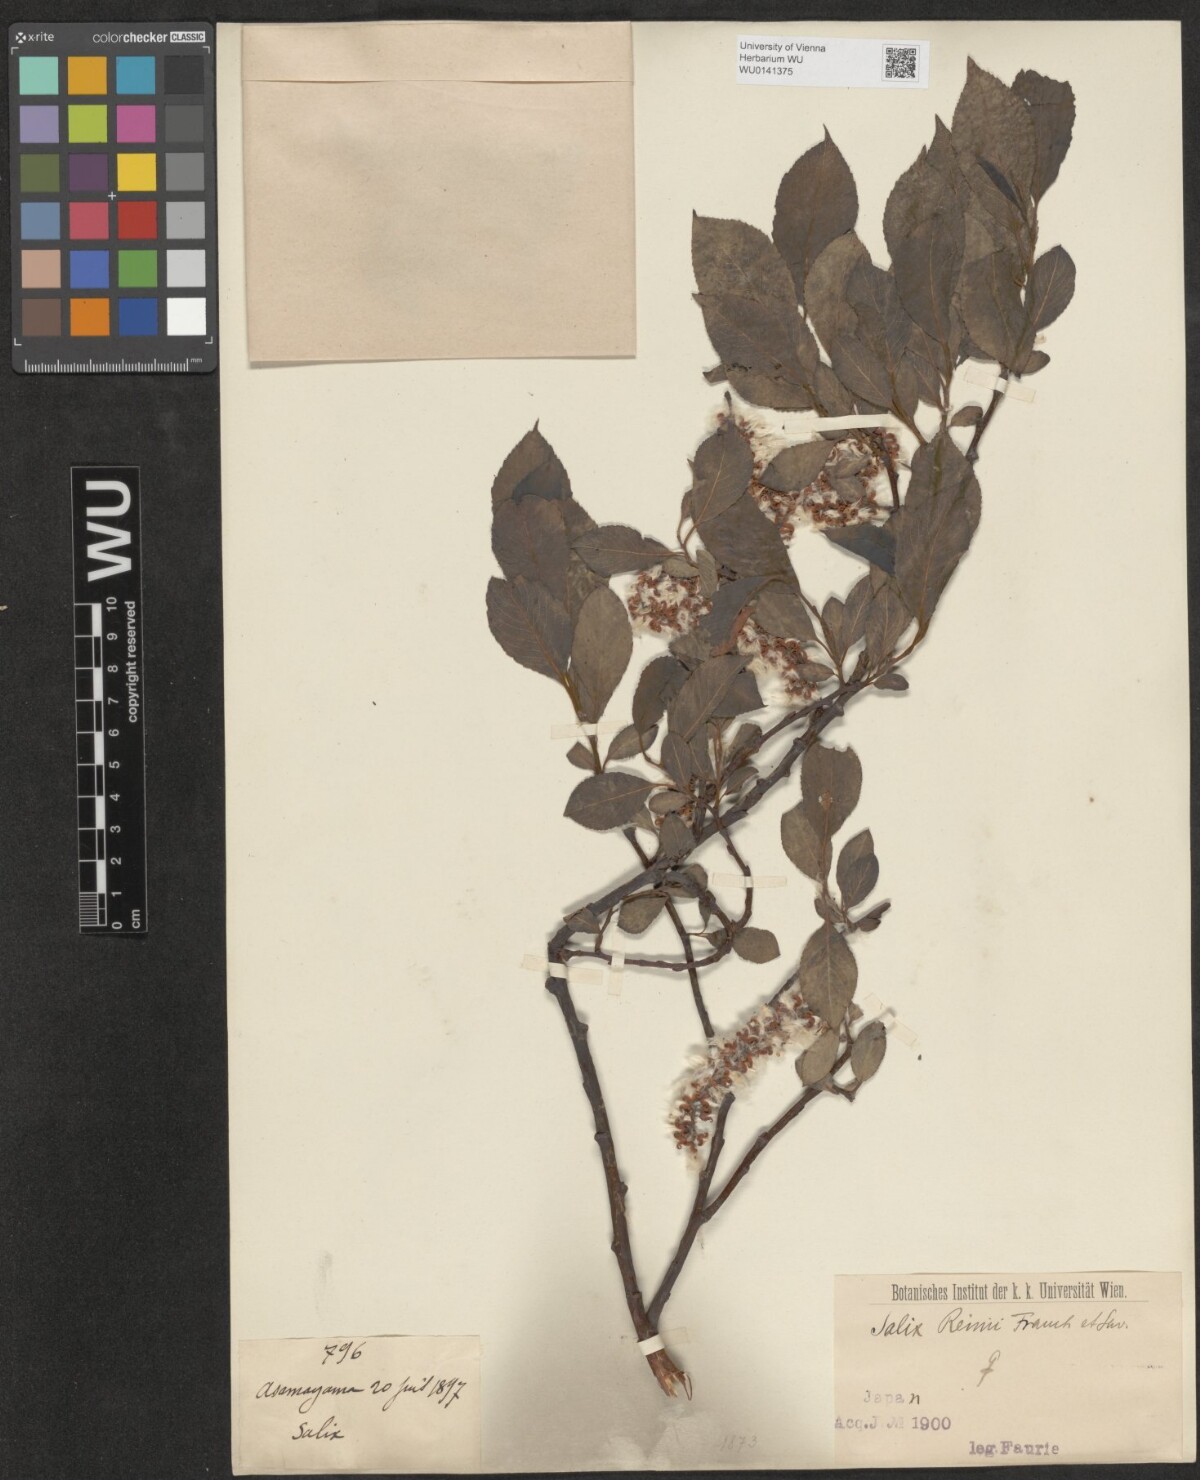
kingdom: Plantae
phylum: Tracheophyta
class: Magnoliopsida
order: Malpighiales
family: Salicaceae
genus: Salix
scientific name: Salix reinii
